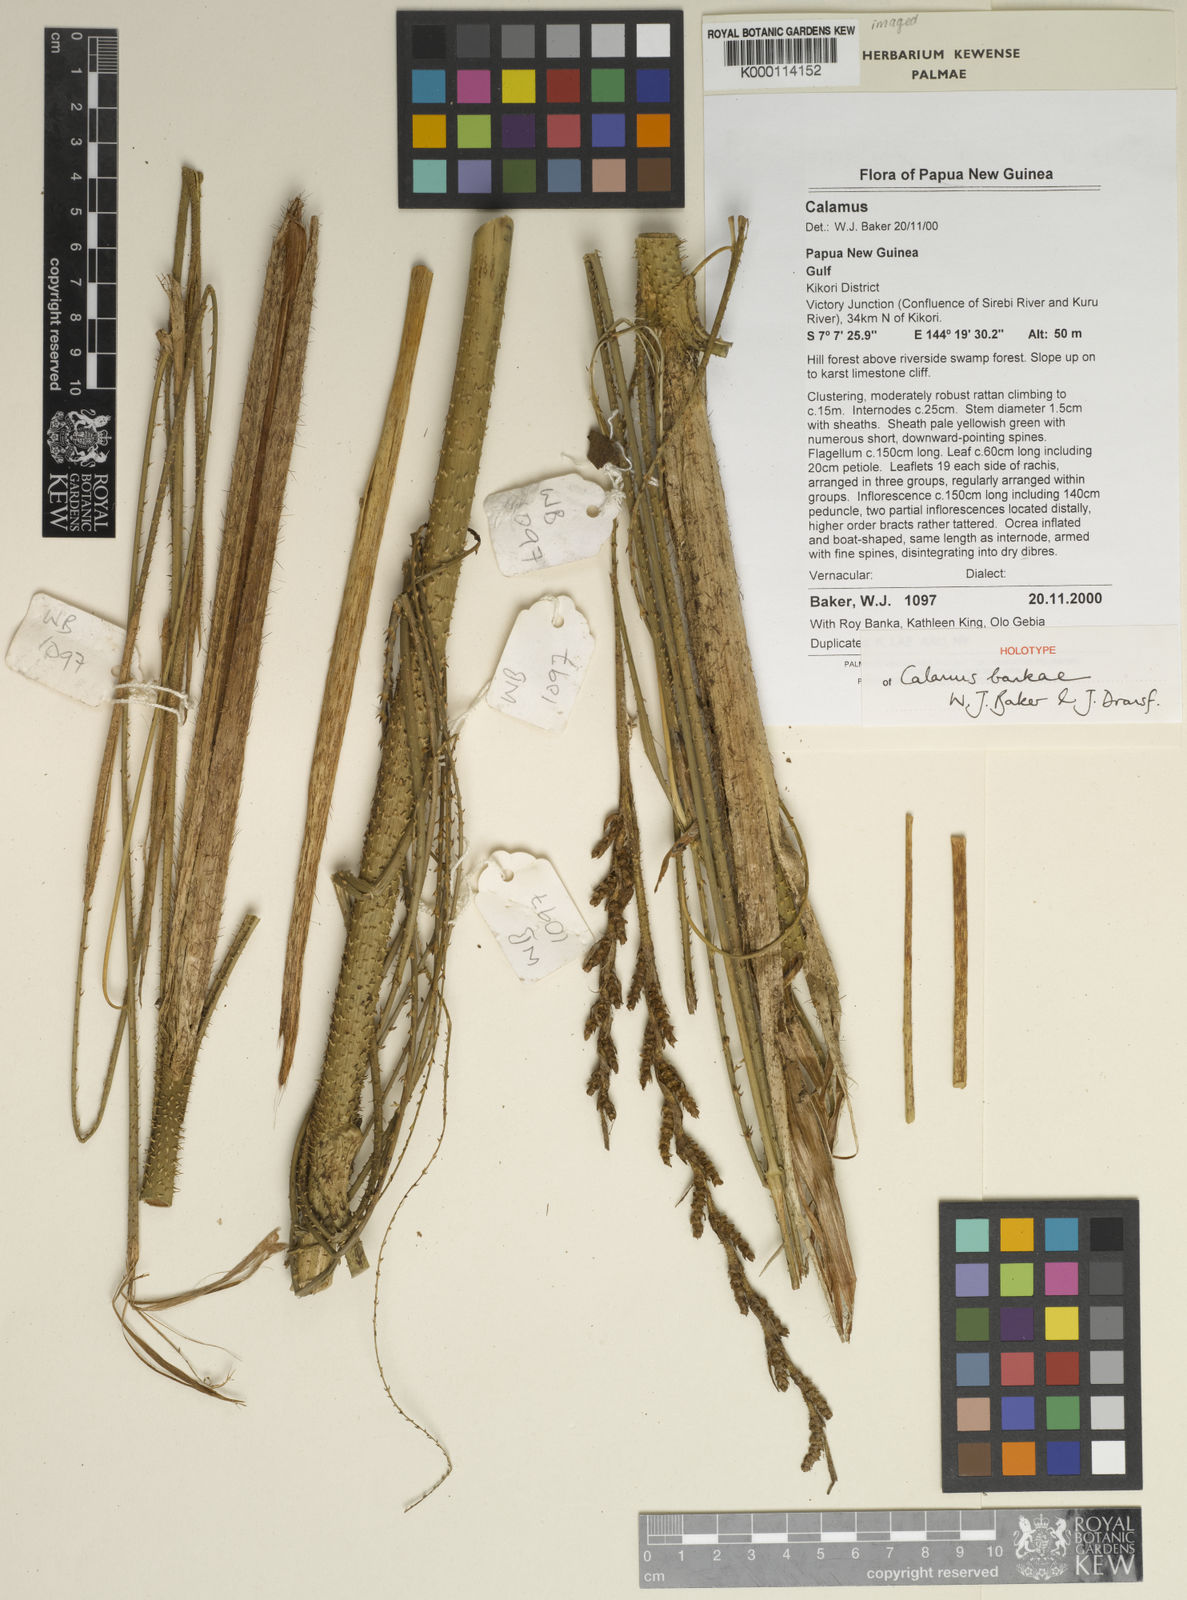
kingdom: Plantae
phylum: Tracheophyta
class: Liliopsida
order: Arecales
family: Arecaceae
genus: Calamus
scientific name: Calamus bankae
